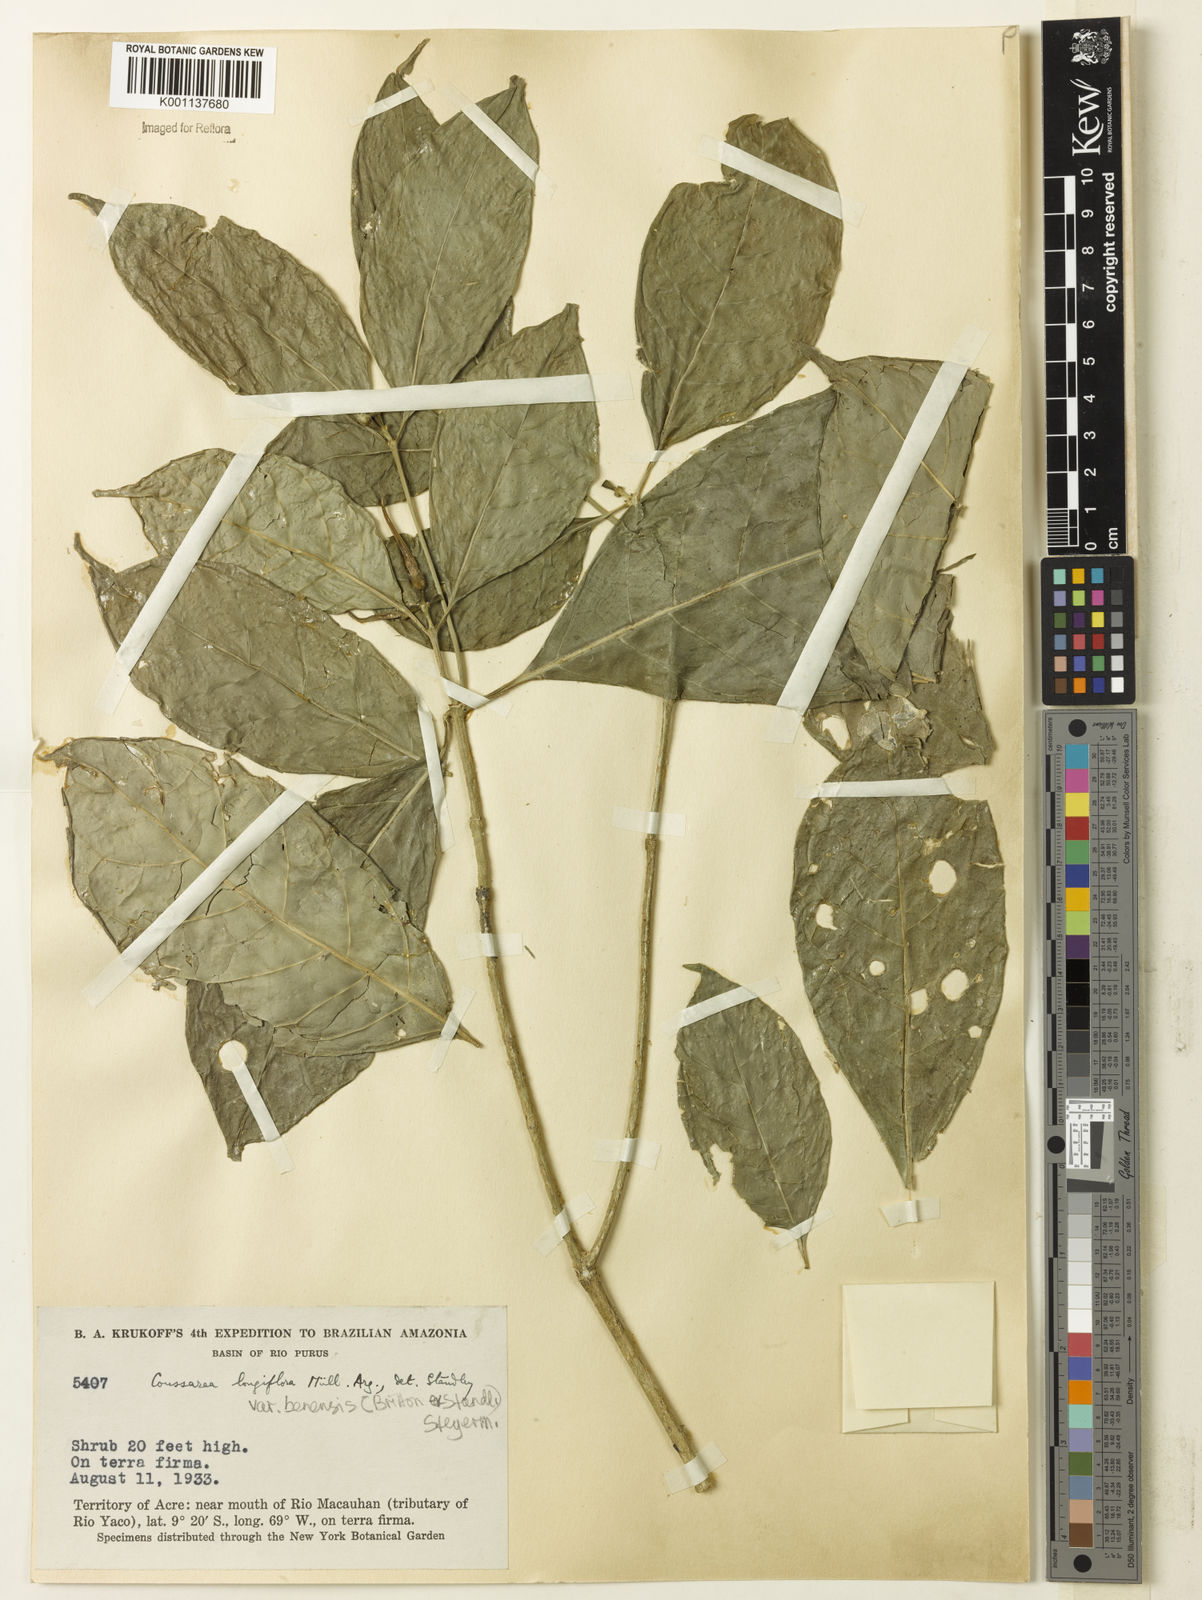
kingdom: Plantae
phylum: Tracheophyta
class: Magnoliopsida
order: Gentianales
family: Rubiaceae
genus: Coussarea
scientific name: Coussarea
